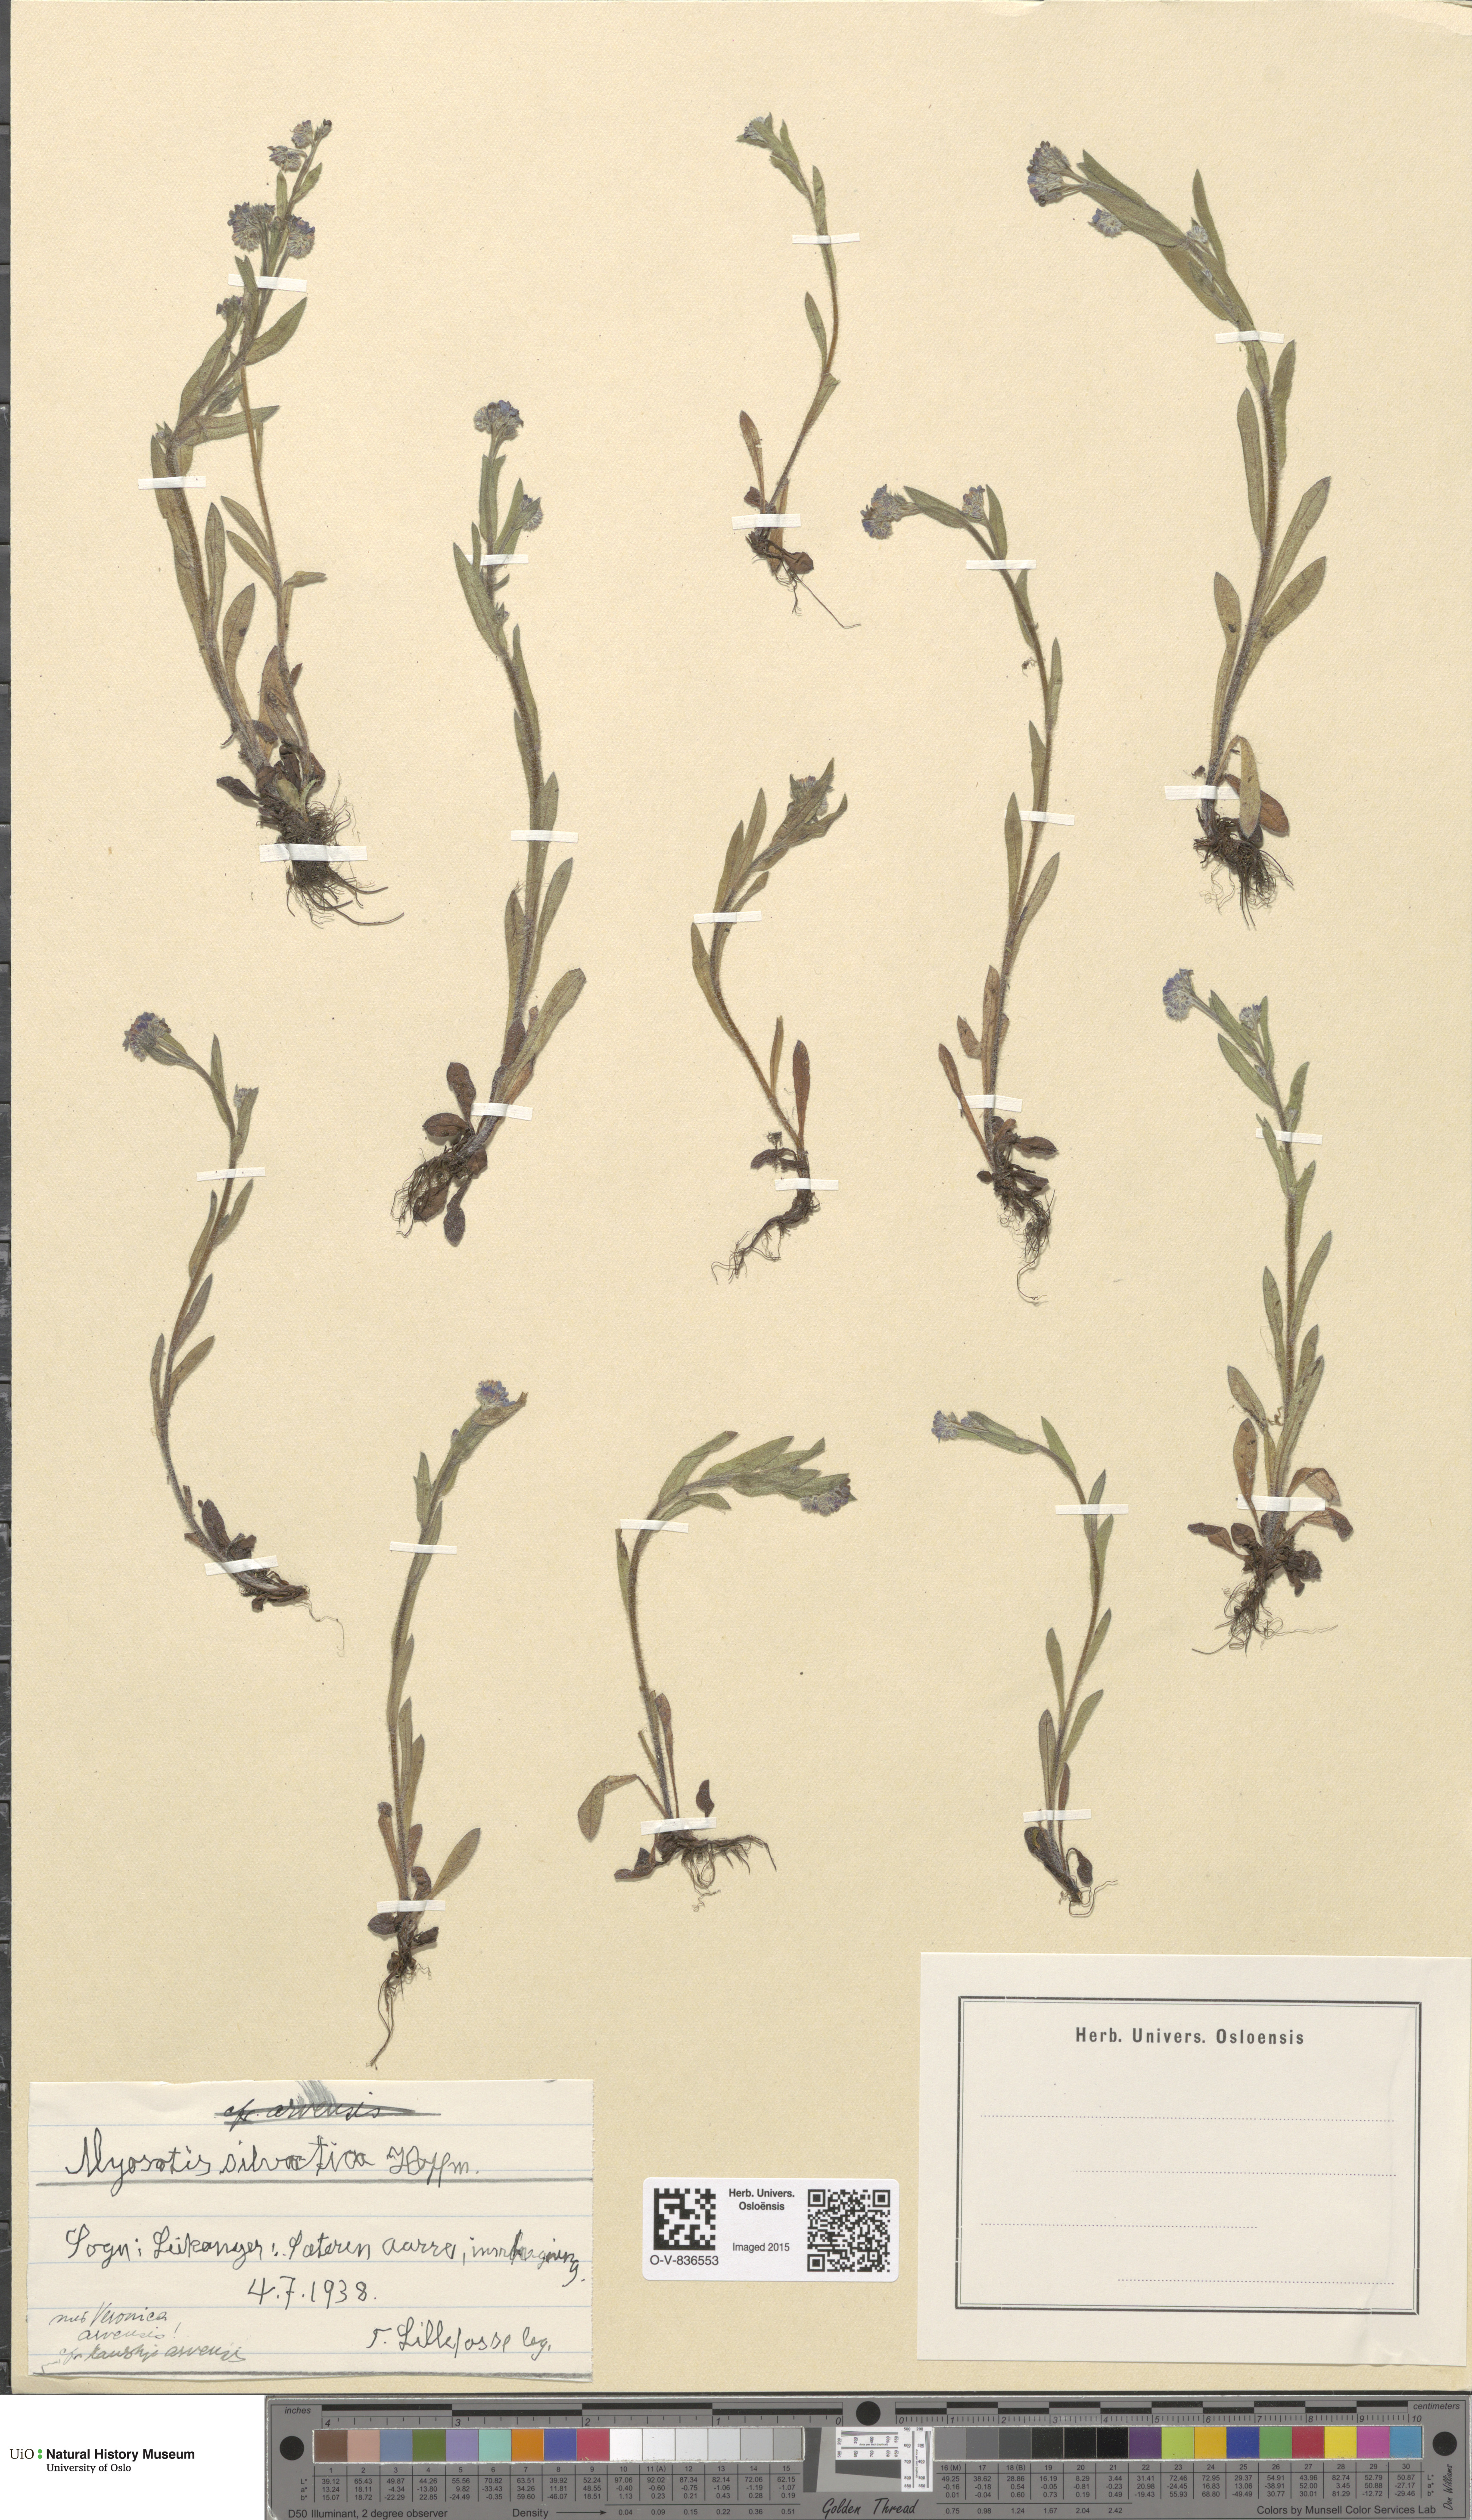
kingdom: Plantae
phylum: Tracheophyta
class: Magnoliopsida
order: Boraginales
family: Boraginaceae
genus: Myosotis
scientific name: Myosotis sylvatica
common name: Wood forget-me-not
